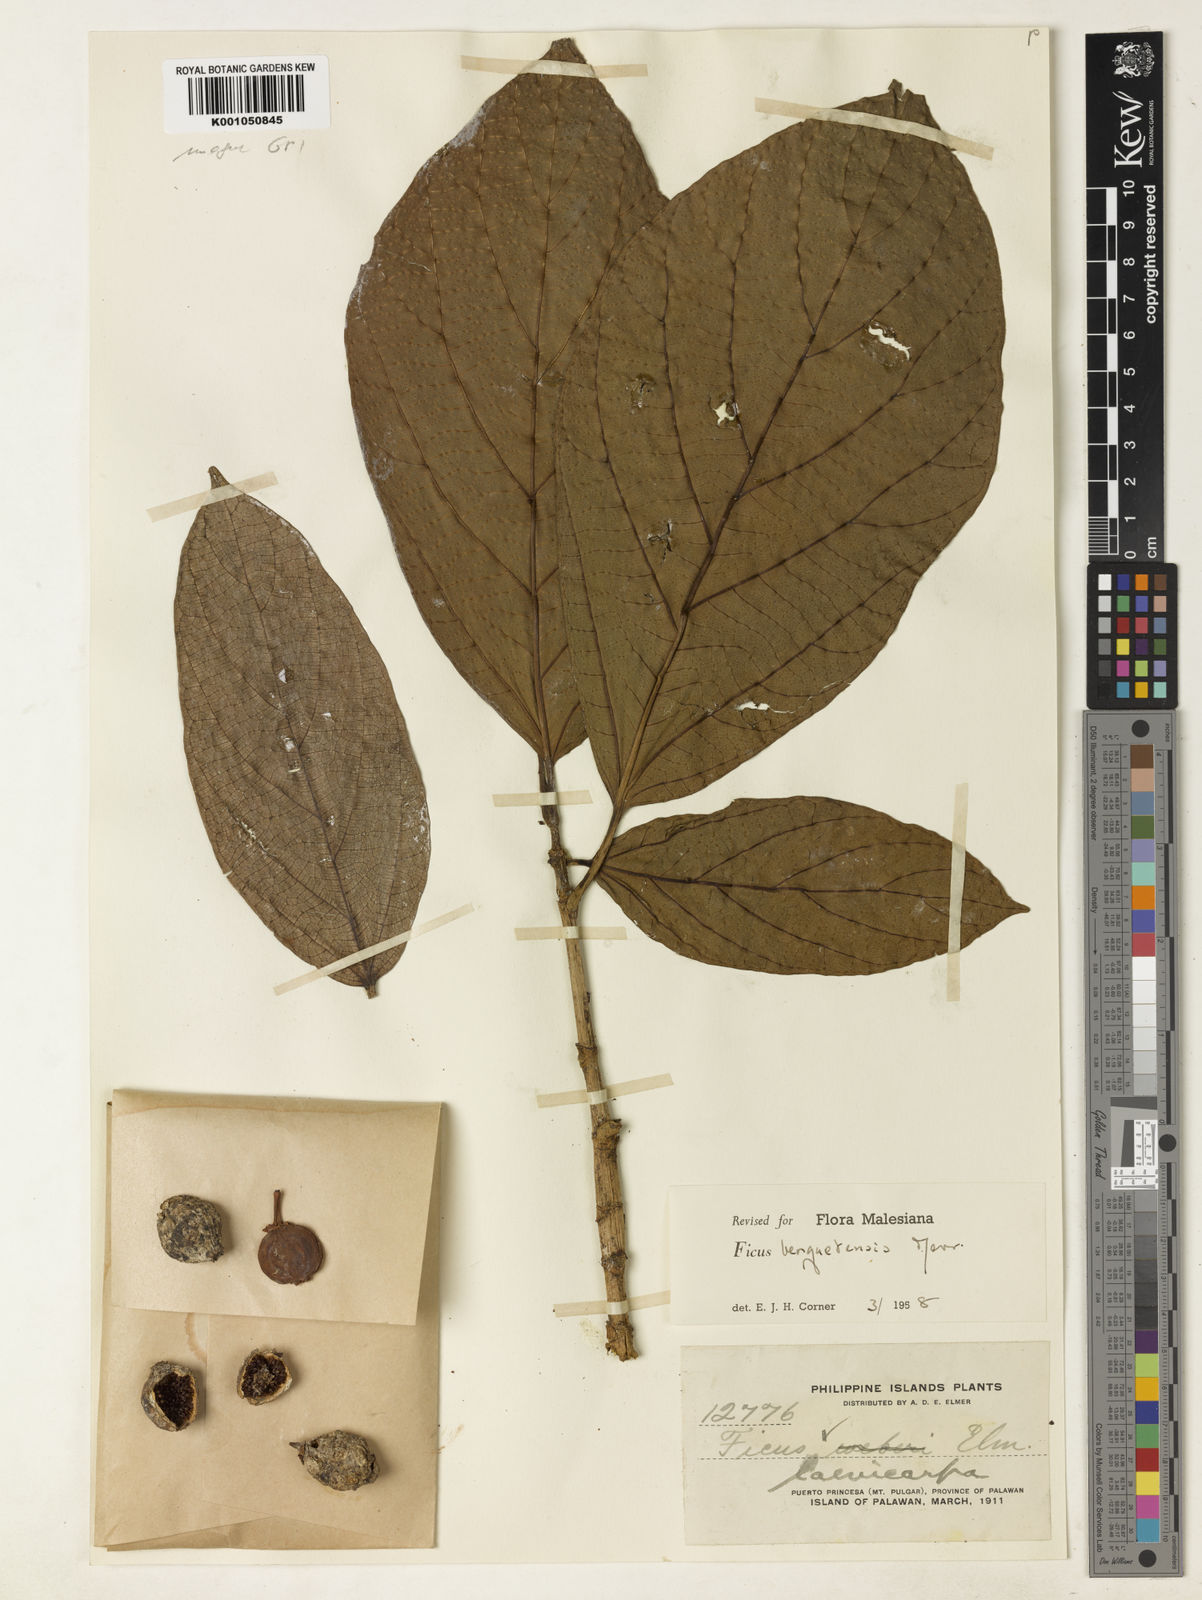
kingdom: Plantae
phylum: Tracheophyta
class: Magnoliopsida
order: Rosales
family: Moraceae
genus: Ficus
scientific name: Ficus benguetensis
